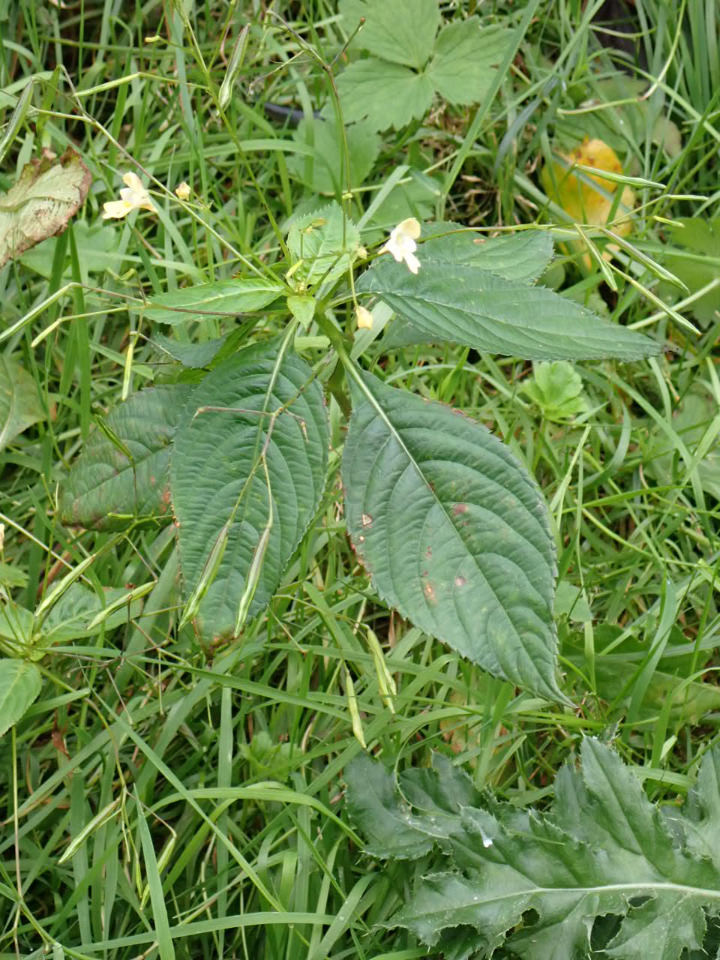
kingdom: Plantae
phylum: Tracheophyta
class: Magnoliopsida
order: Ericales
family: Balsaminaceae
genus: Impatiens
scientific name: Impatiens parviflora
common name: Småblomstret balsamin
